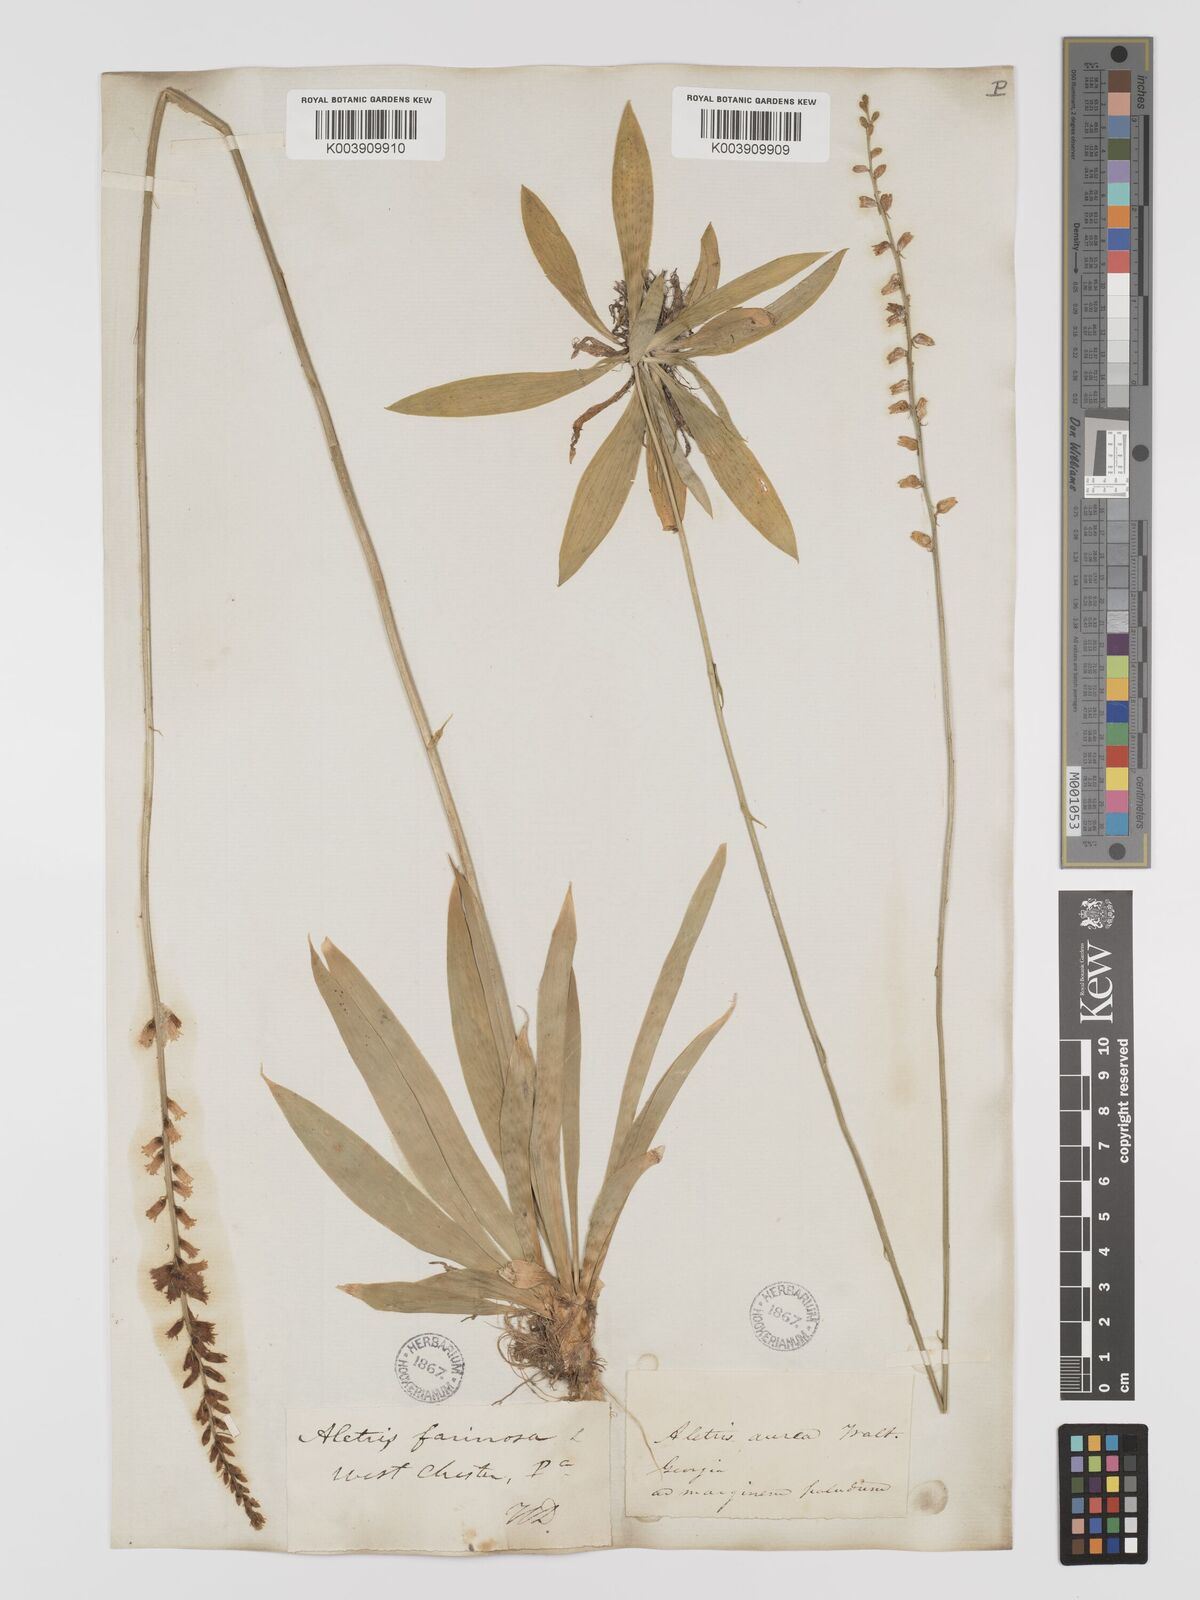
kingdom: Plantae
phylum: Tracheophyta
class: Liliopsida
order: Dioscoreales
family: Nartheciaceae
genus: Aletris
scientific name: Aletris aurea
